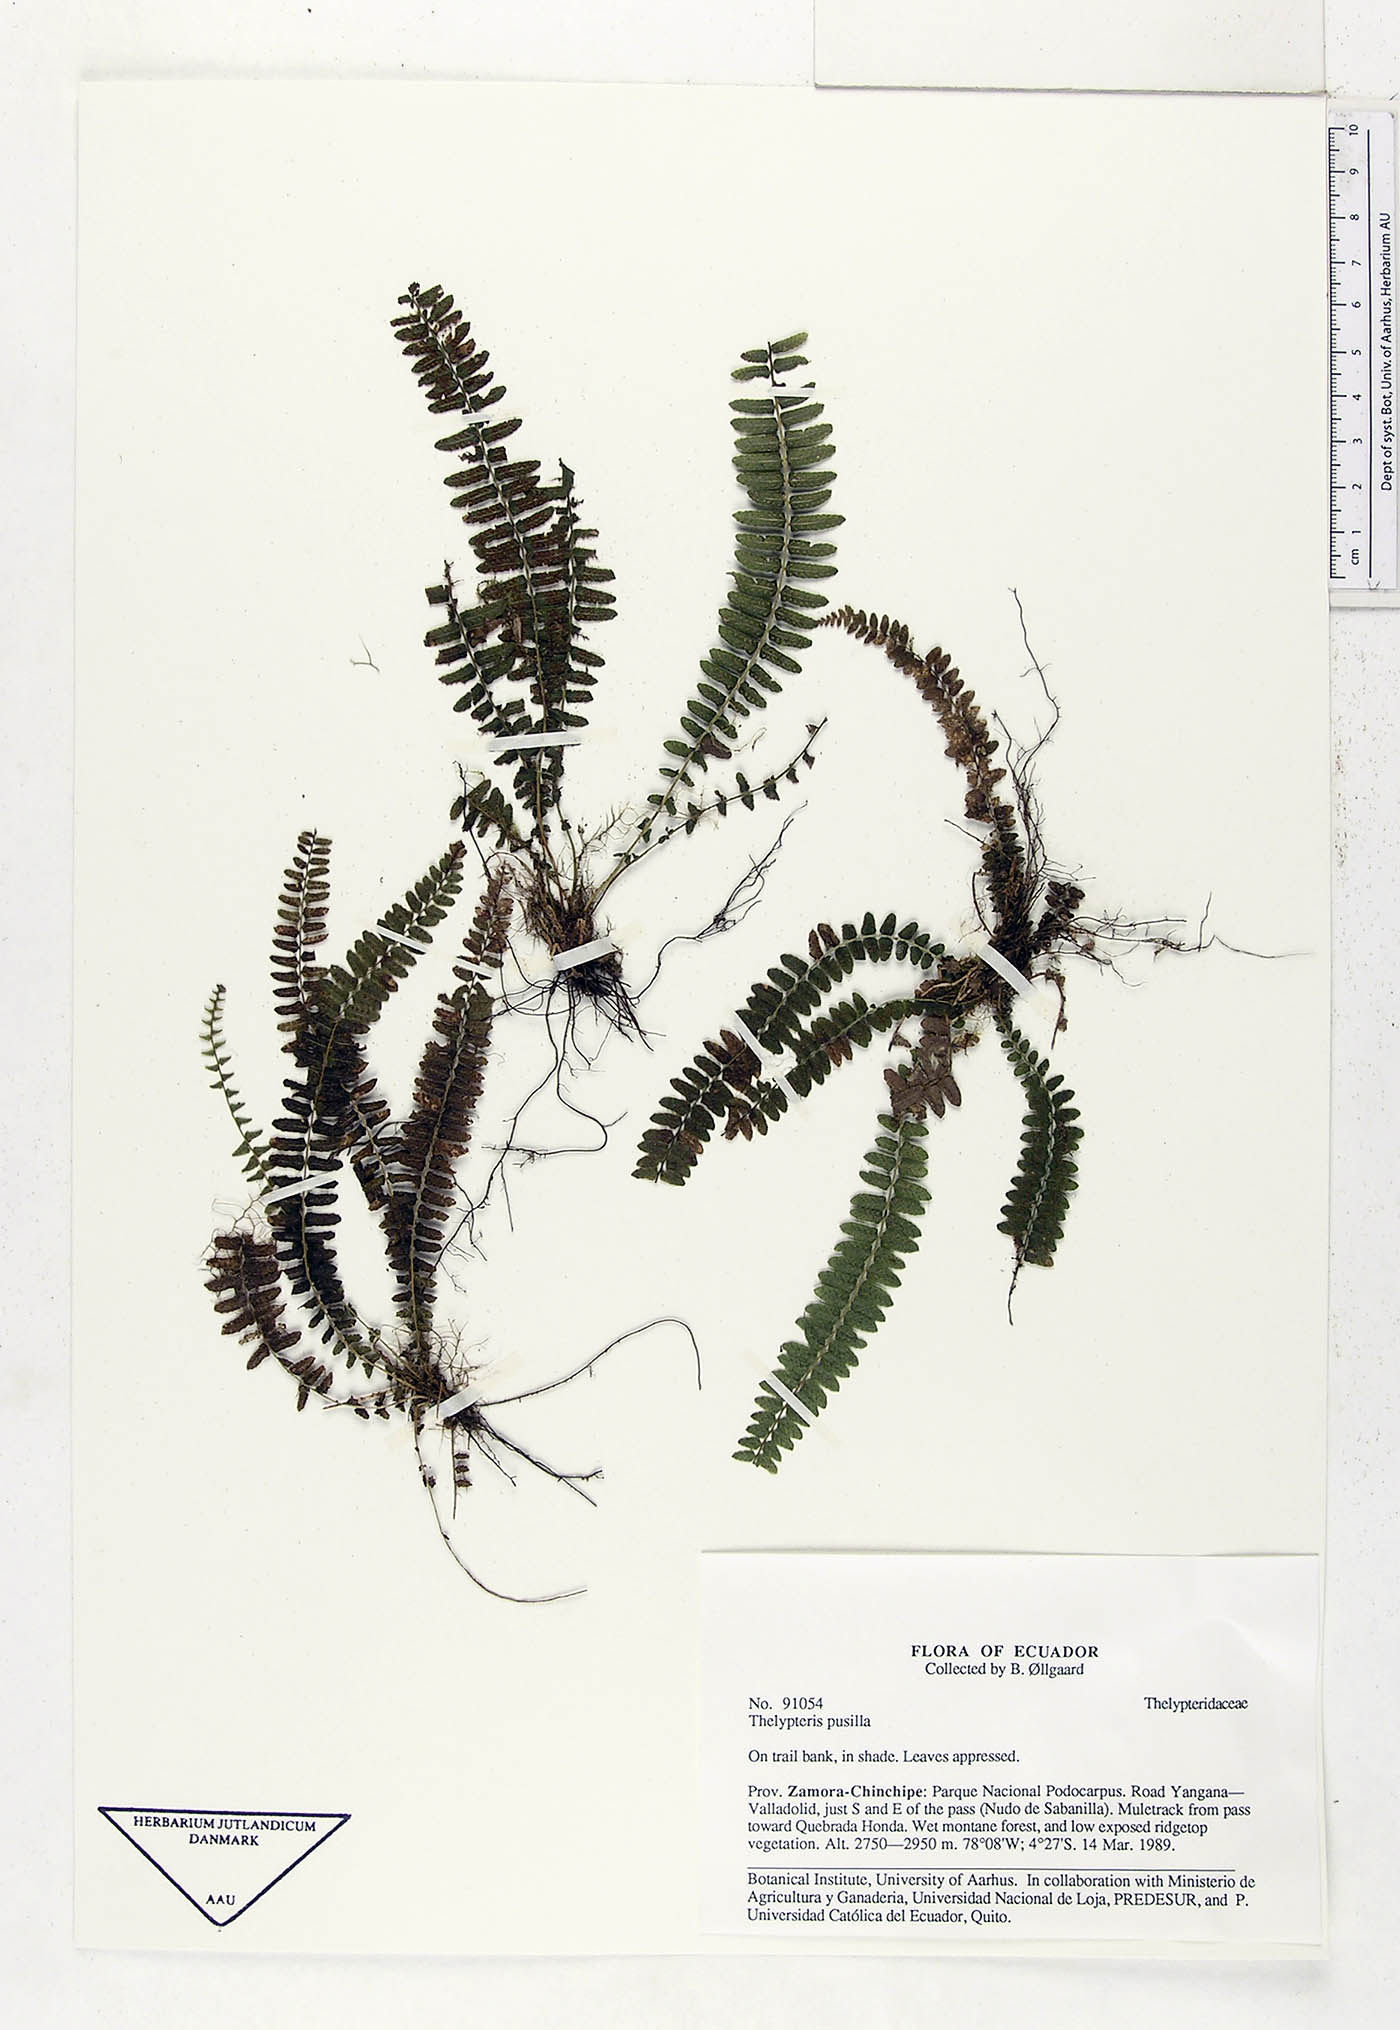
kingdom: Plantae
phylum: Tracheophyta
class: Polypodiopsida
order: Polypodiales
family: Thelypteridaceae
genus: Amauropelta
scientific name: Amauropelta pusilla
